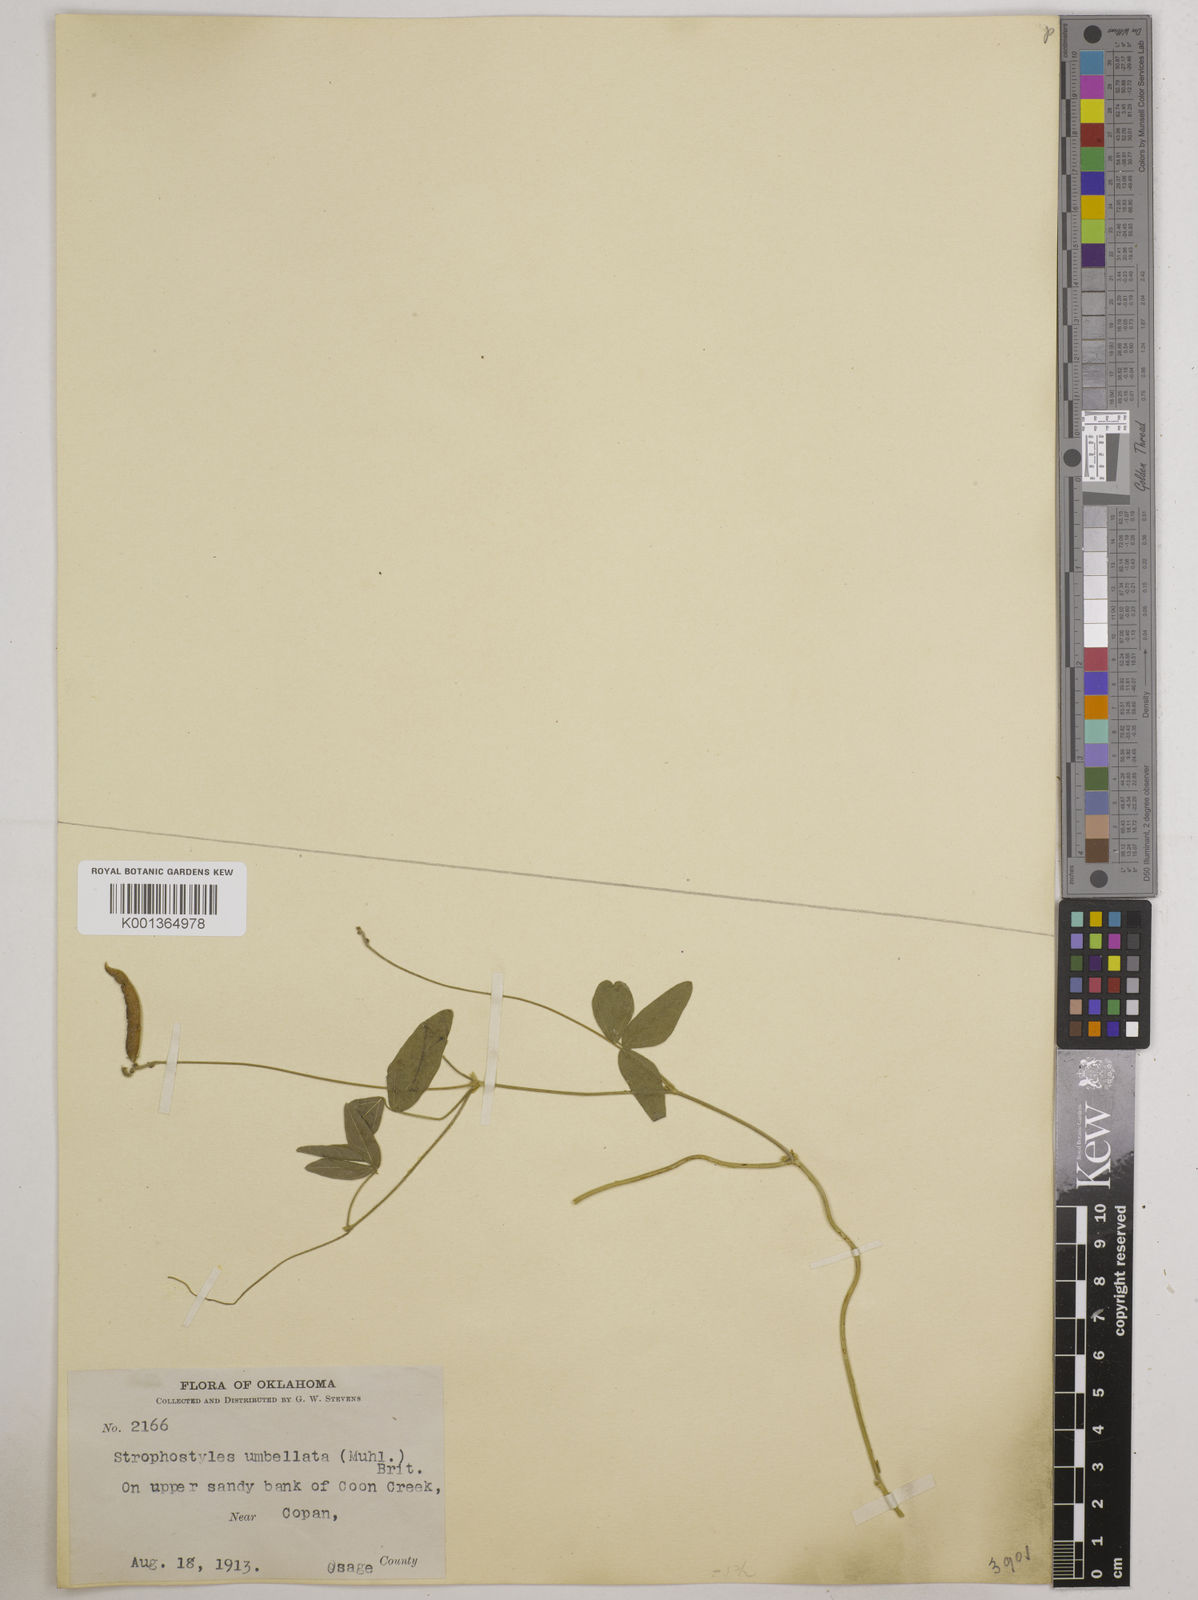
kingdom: Plantae
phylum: Tracheophyta
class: Magnoliopsida
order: Fabales
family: Fabaceae
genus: Strophostyles
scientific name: Strophostyles umbellata
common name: Perennial wild bean
